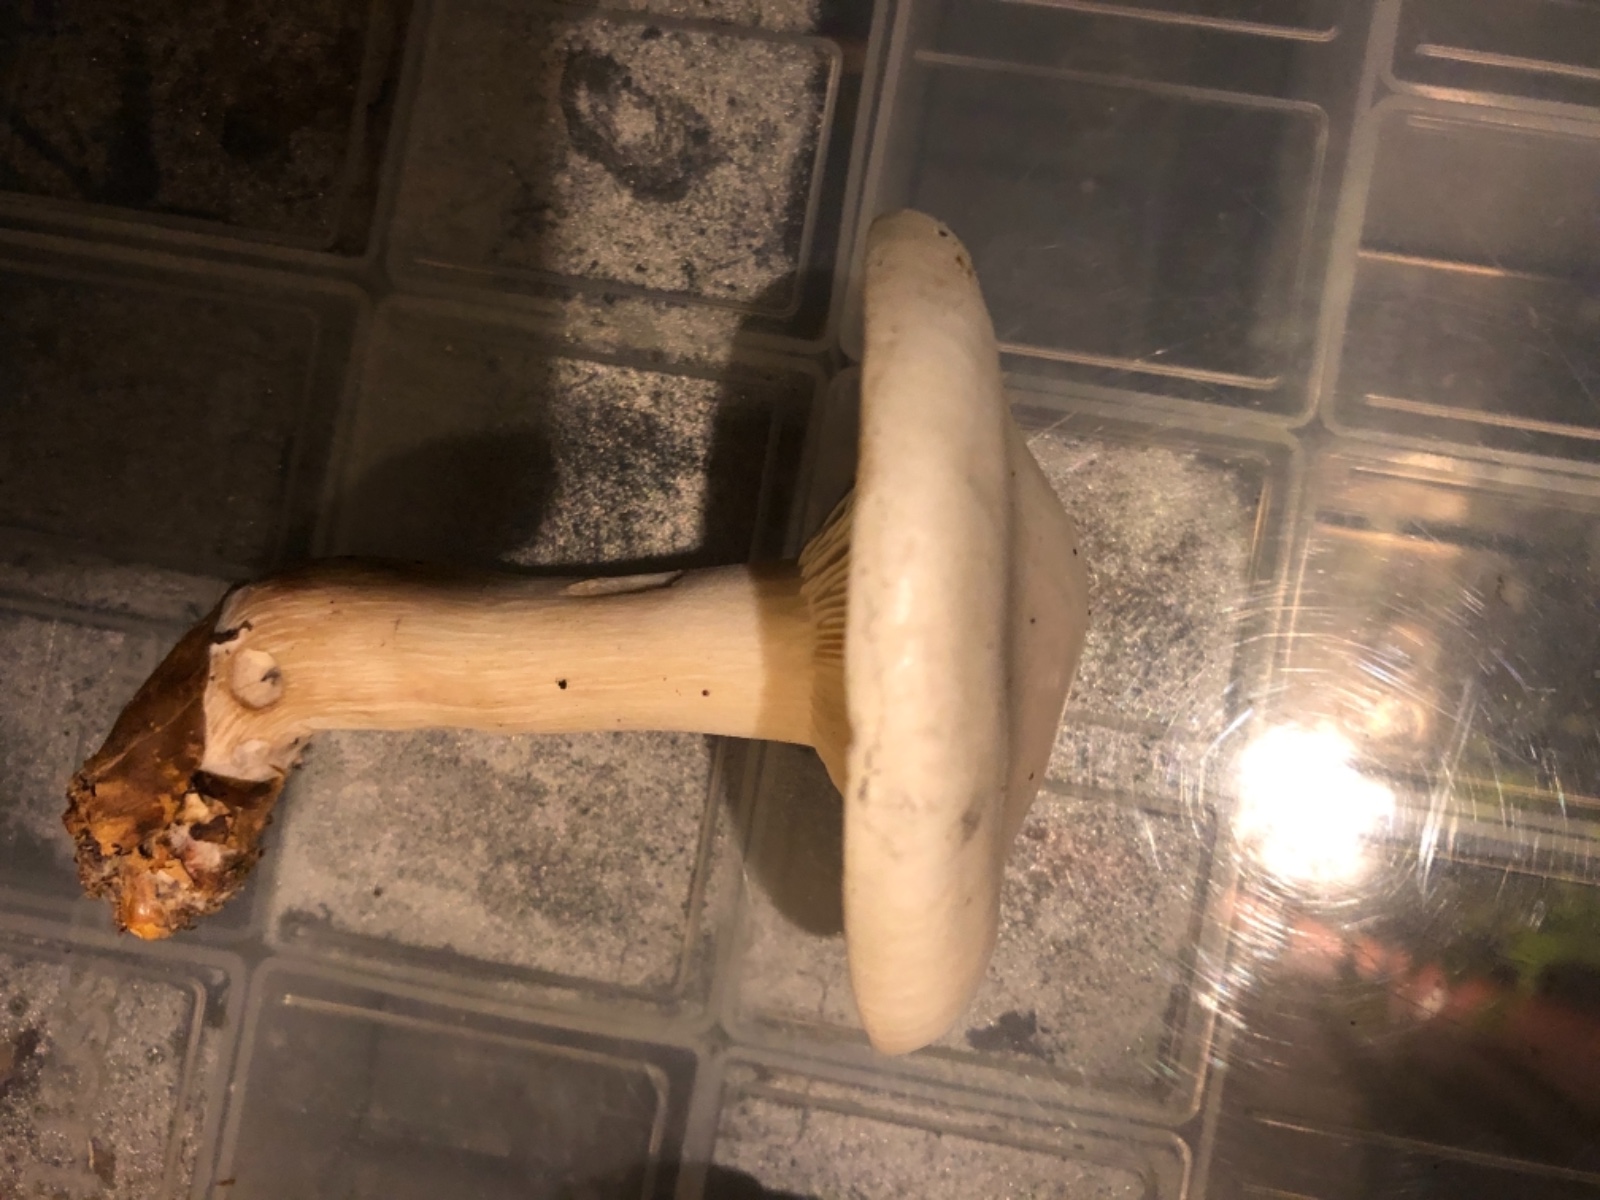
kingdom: Fungi
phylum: Basidiomycota
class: Agaricomycetes
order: Agaricales
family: Tricholomataceae
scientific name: Tricholomataceae
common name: ridderhatfamilien
